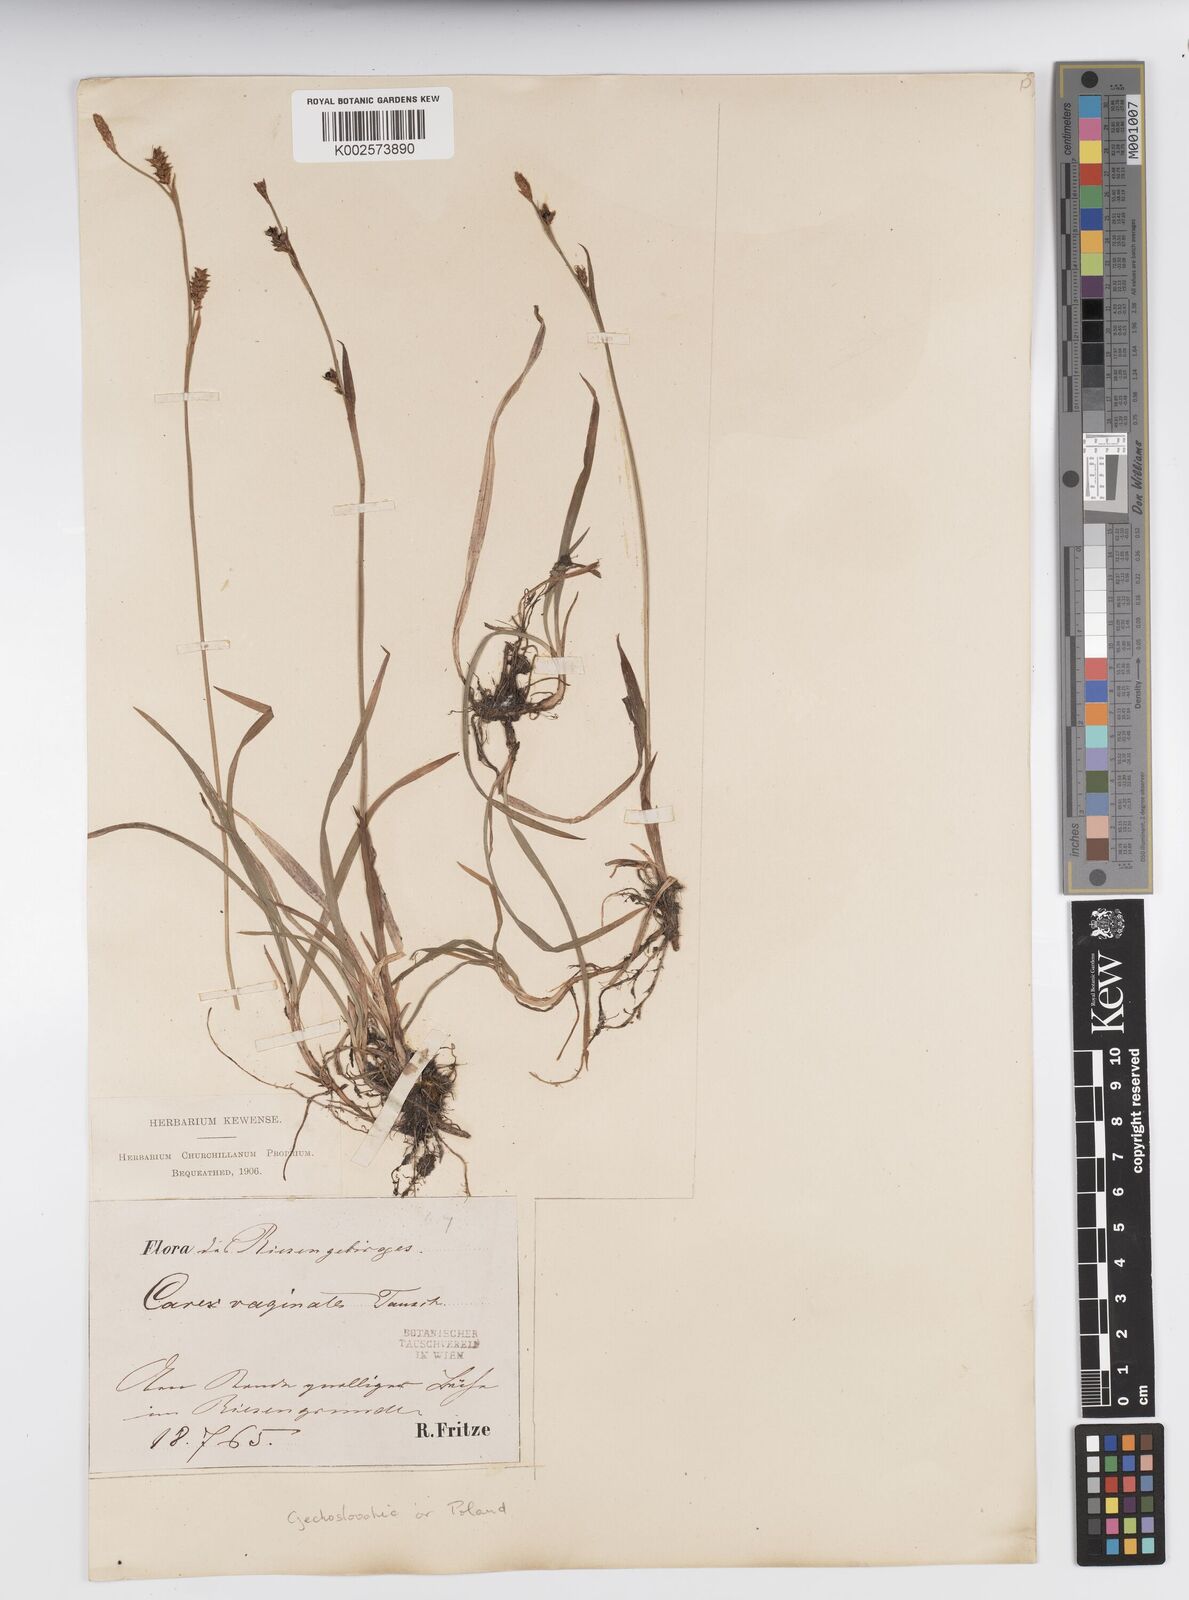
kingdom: Plantae
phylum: Tracheophyta
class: Liliopsida
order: Poales
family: Cyperaceae
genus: Carex
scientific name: Carex vaginata
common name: Sheathed sedge
